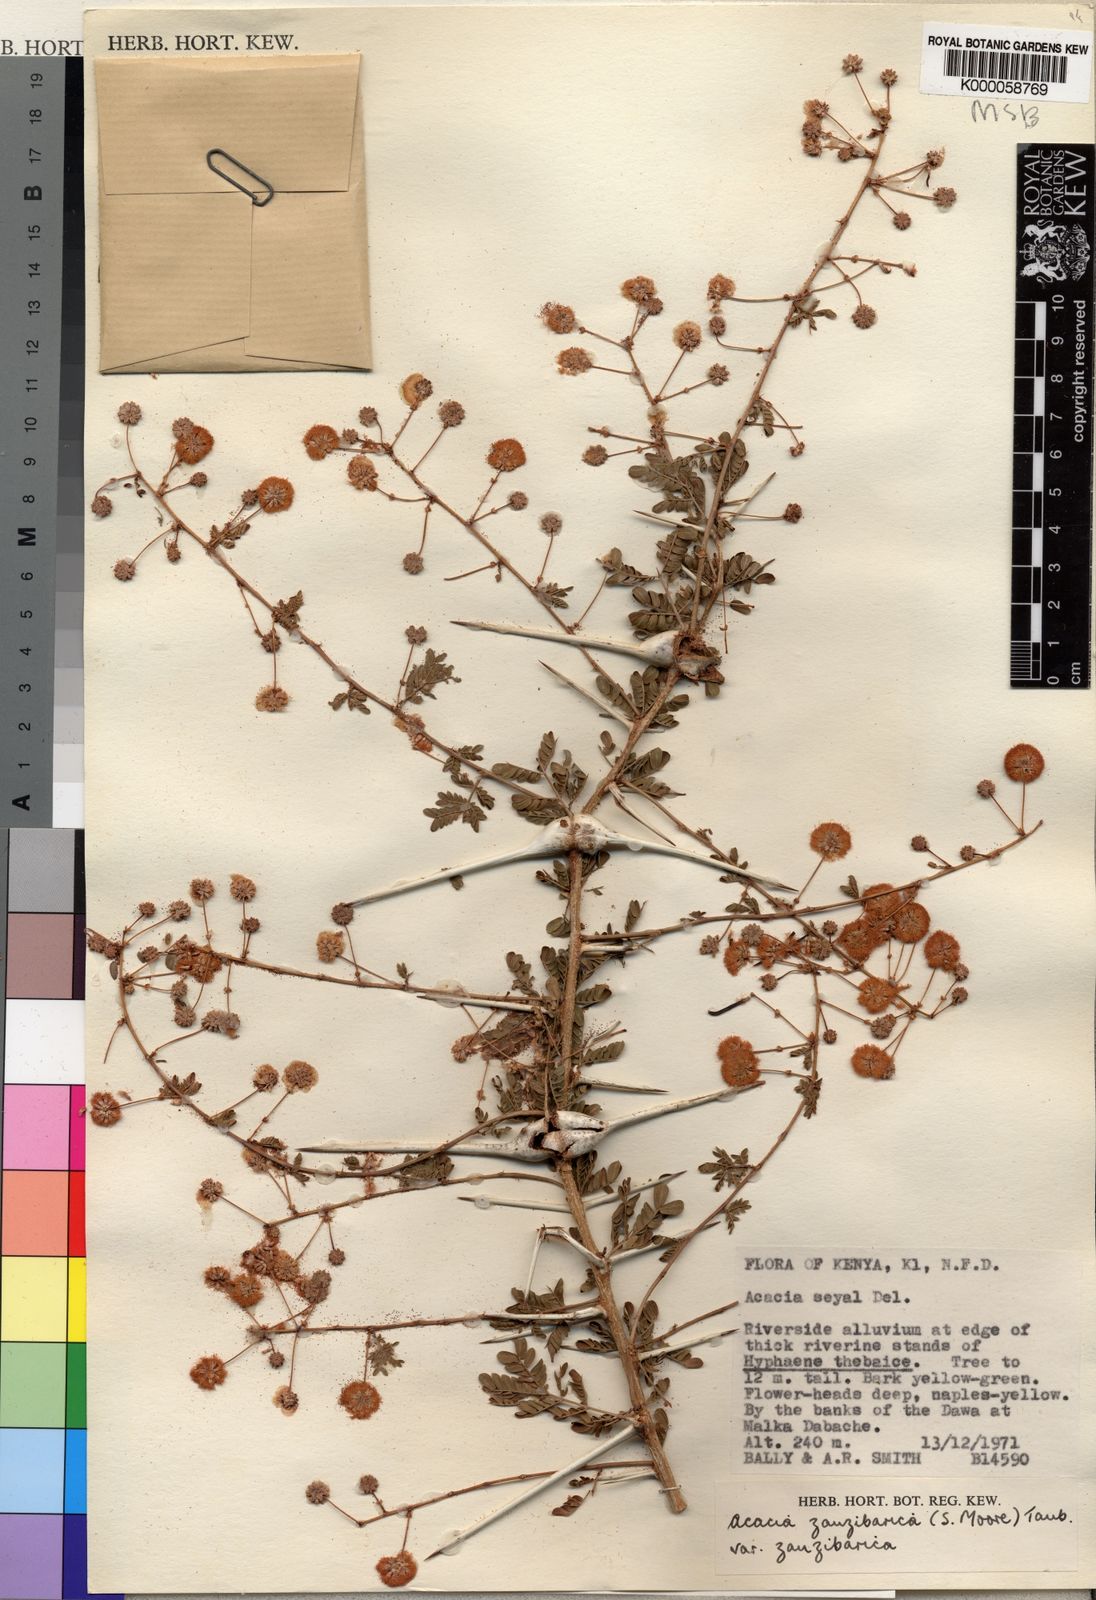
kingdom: Plantae
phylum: Tracheophyta
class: Magnoliopsida
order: Fabales
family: Fabaceae
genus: Vachellia
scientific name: Vachellia zanzibarica
